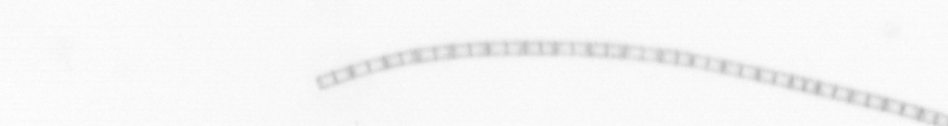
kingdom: Chromista
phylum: Ochrophyta
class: Bacillariophyceae
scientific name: Bacillariophyceae
